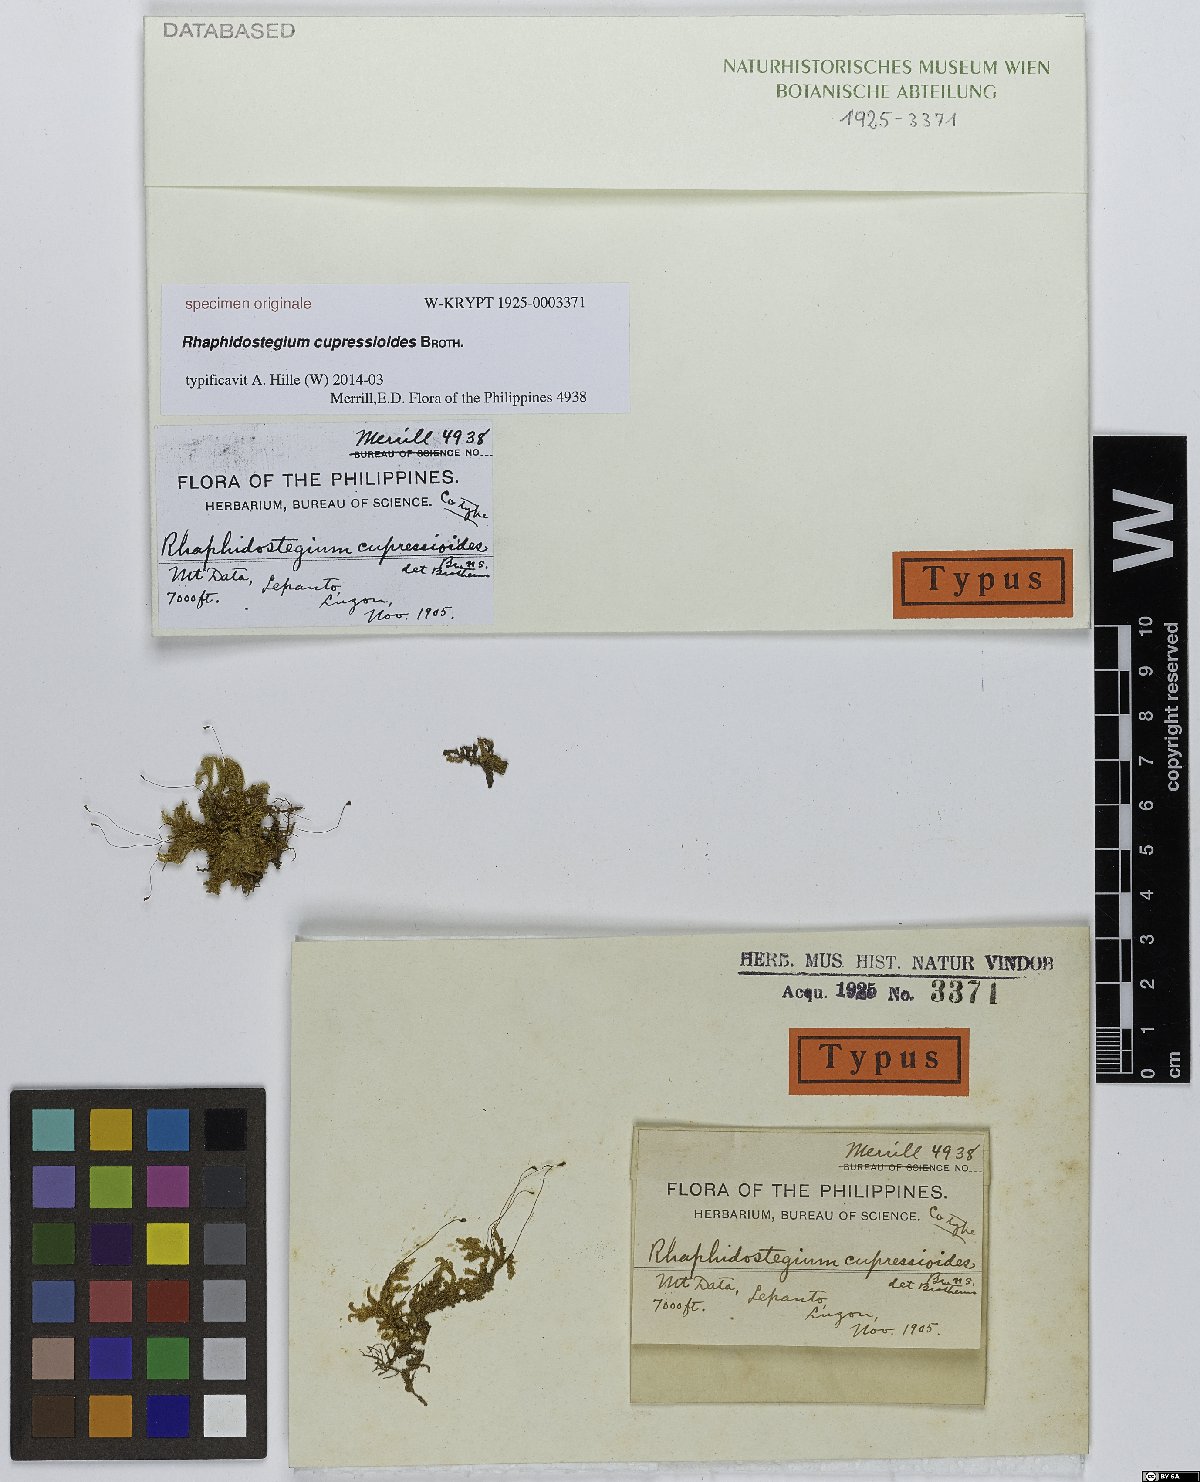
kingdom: Plantae
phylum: Bryophyta
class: Bryopsida
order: Hypnales
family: Sematophyllaceae
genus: Rhaphidostegium
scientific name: Rhaphidostegium
